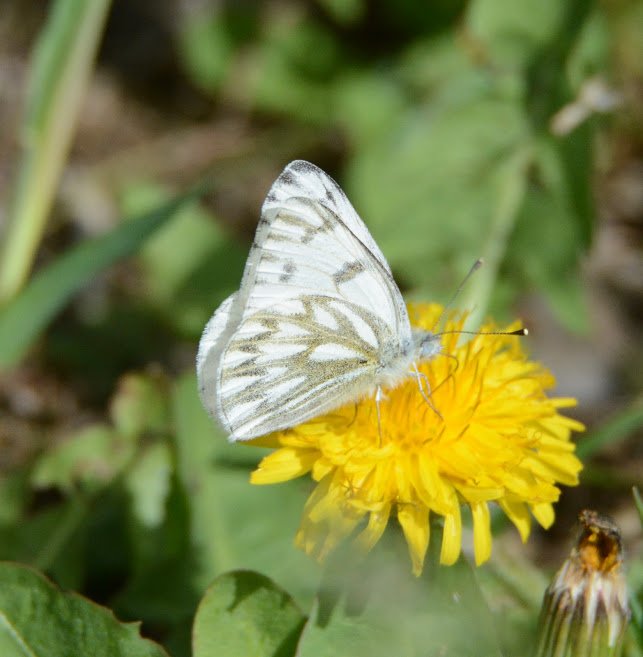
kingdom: Animalia
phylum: Arthropoda
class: Insecta
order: Lepidoptera
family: Pieridae
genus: Pontia
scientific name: Pontia protodice
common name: Checkered White
